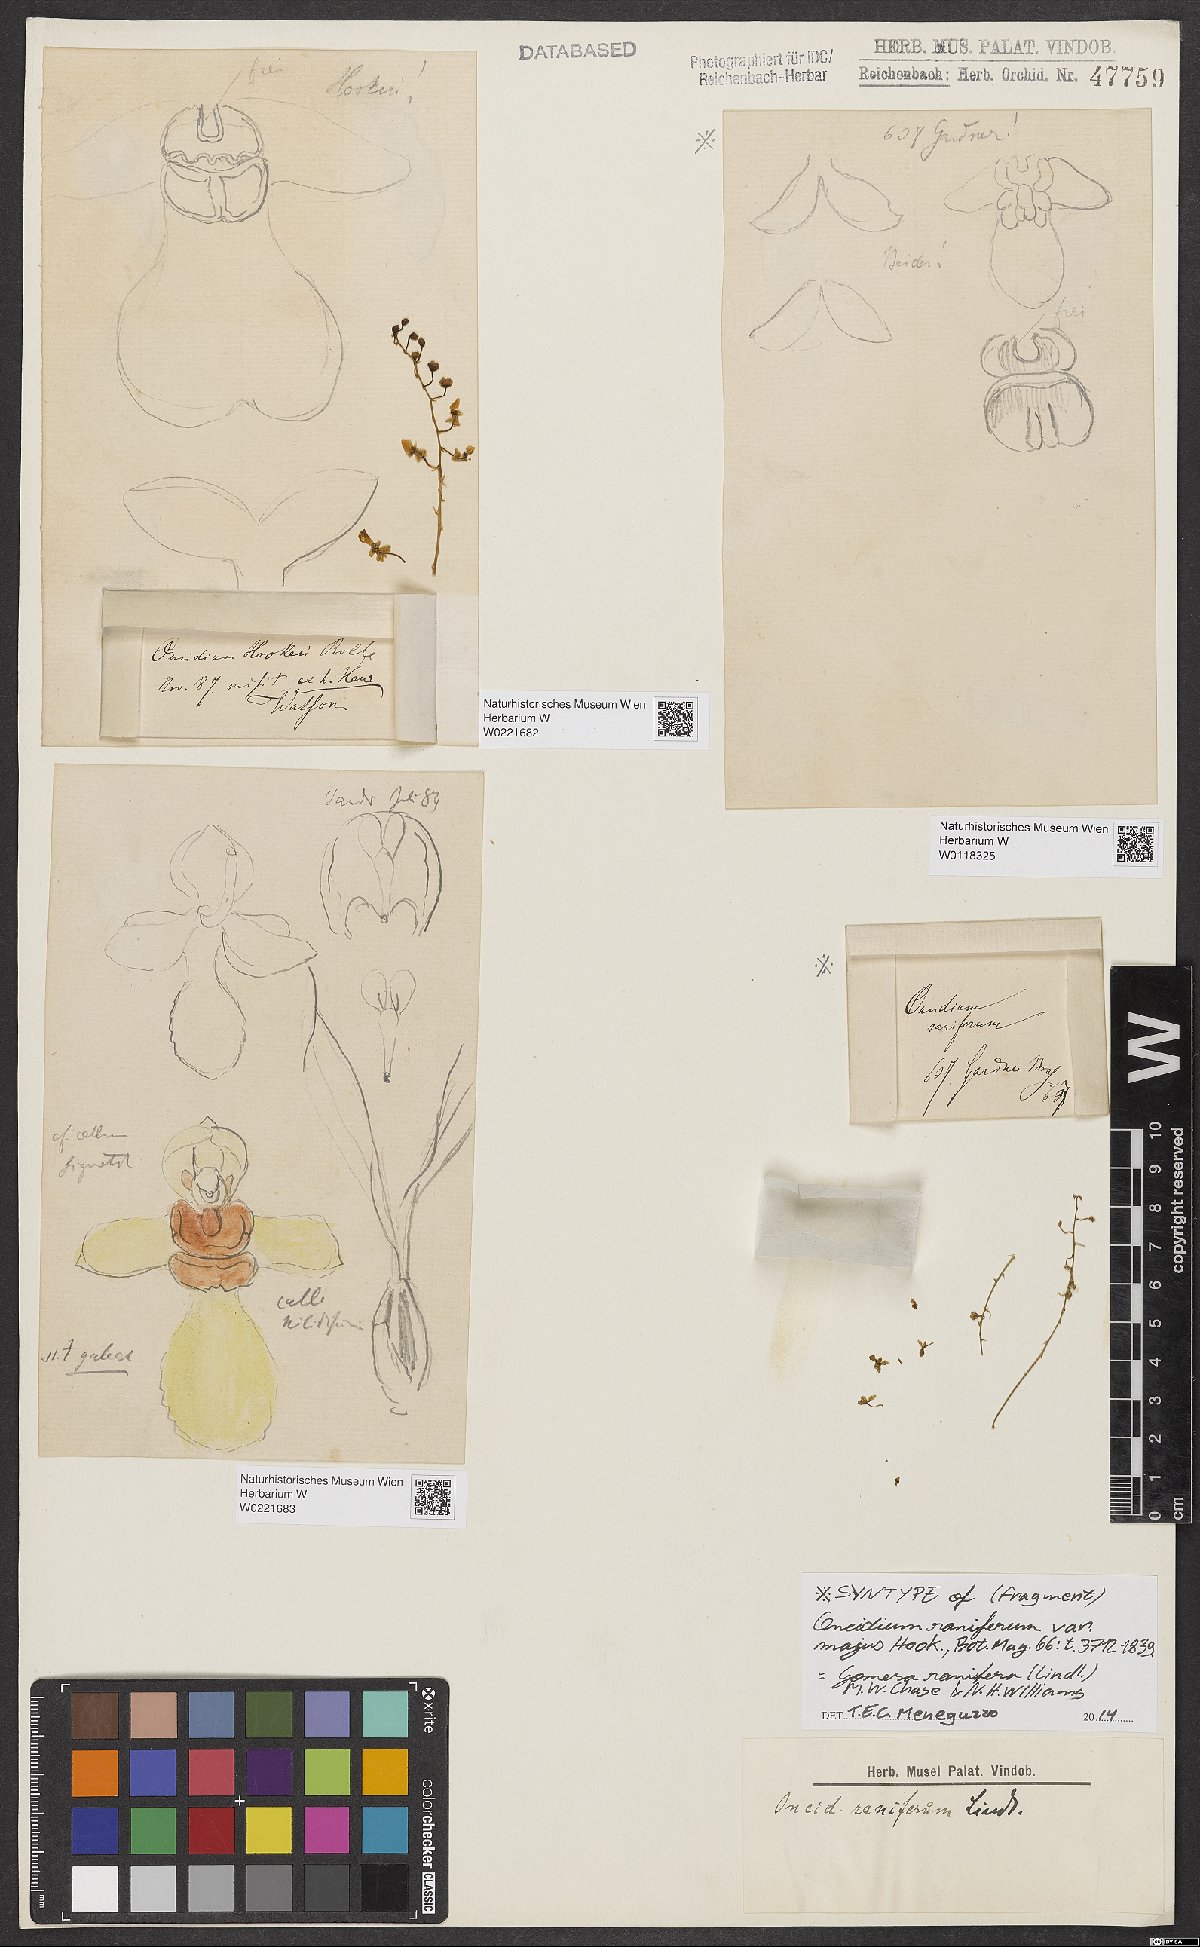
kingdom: Plantae
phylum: Tracheophyta
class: Liliopsida
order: Asparagales
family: Orchidaceae
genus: Gomesa
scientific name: Gomesa ranifera
